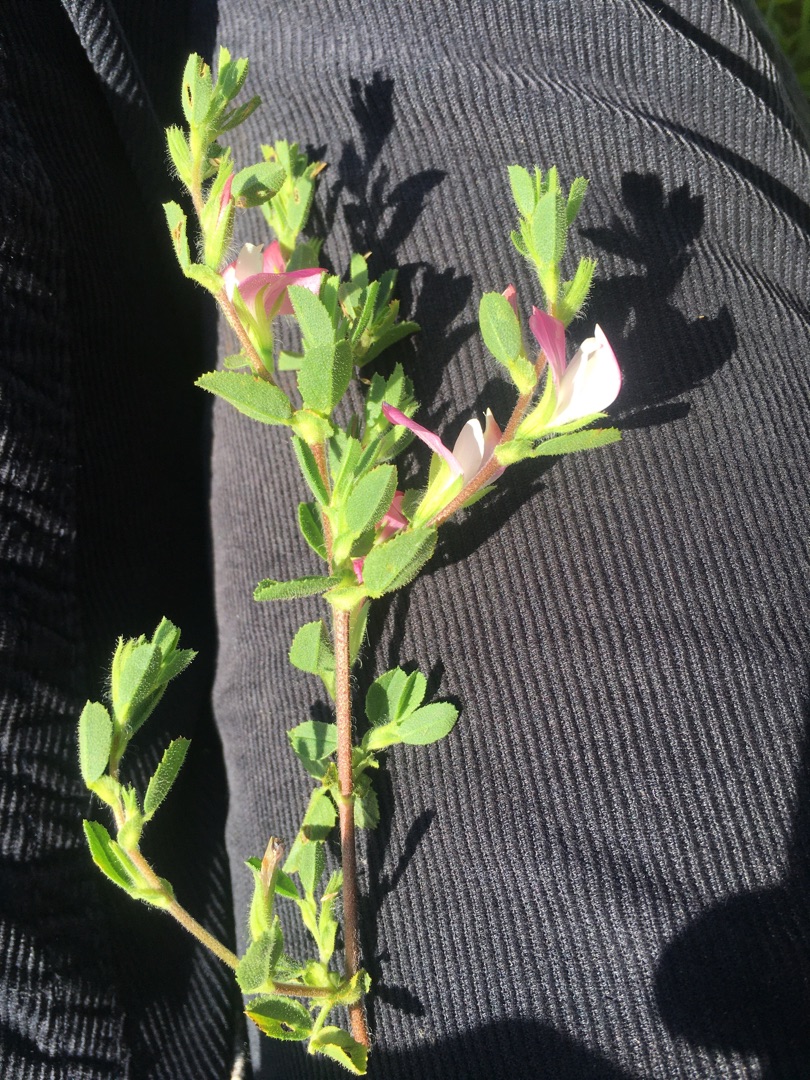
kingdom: Plantae
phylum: Tracheophyta
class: Magnoliopsida
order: Fabales
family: Fabaceae
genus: Ononis
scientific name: Ononis spinosa
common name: Mark-krageklo
